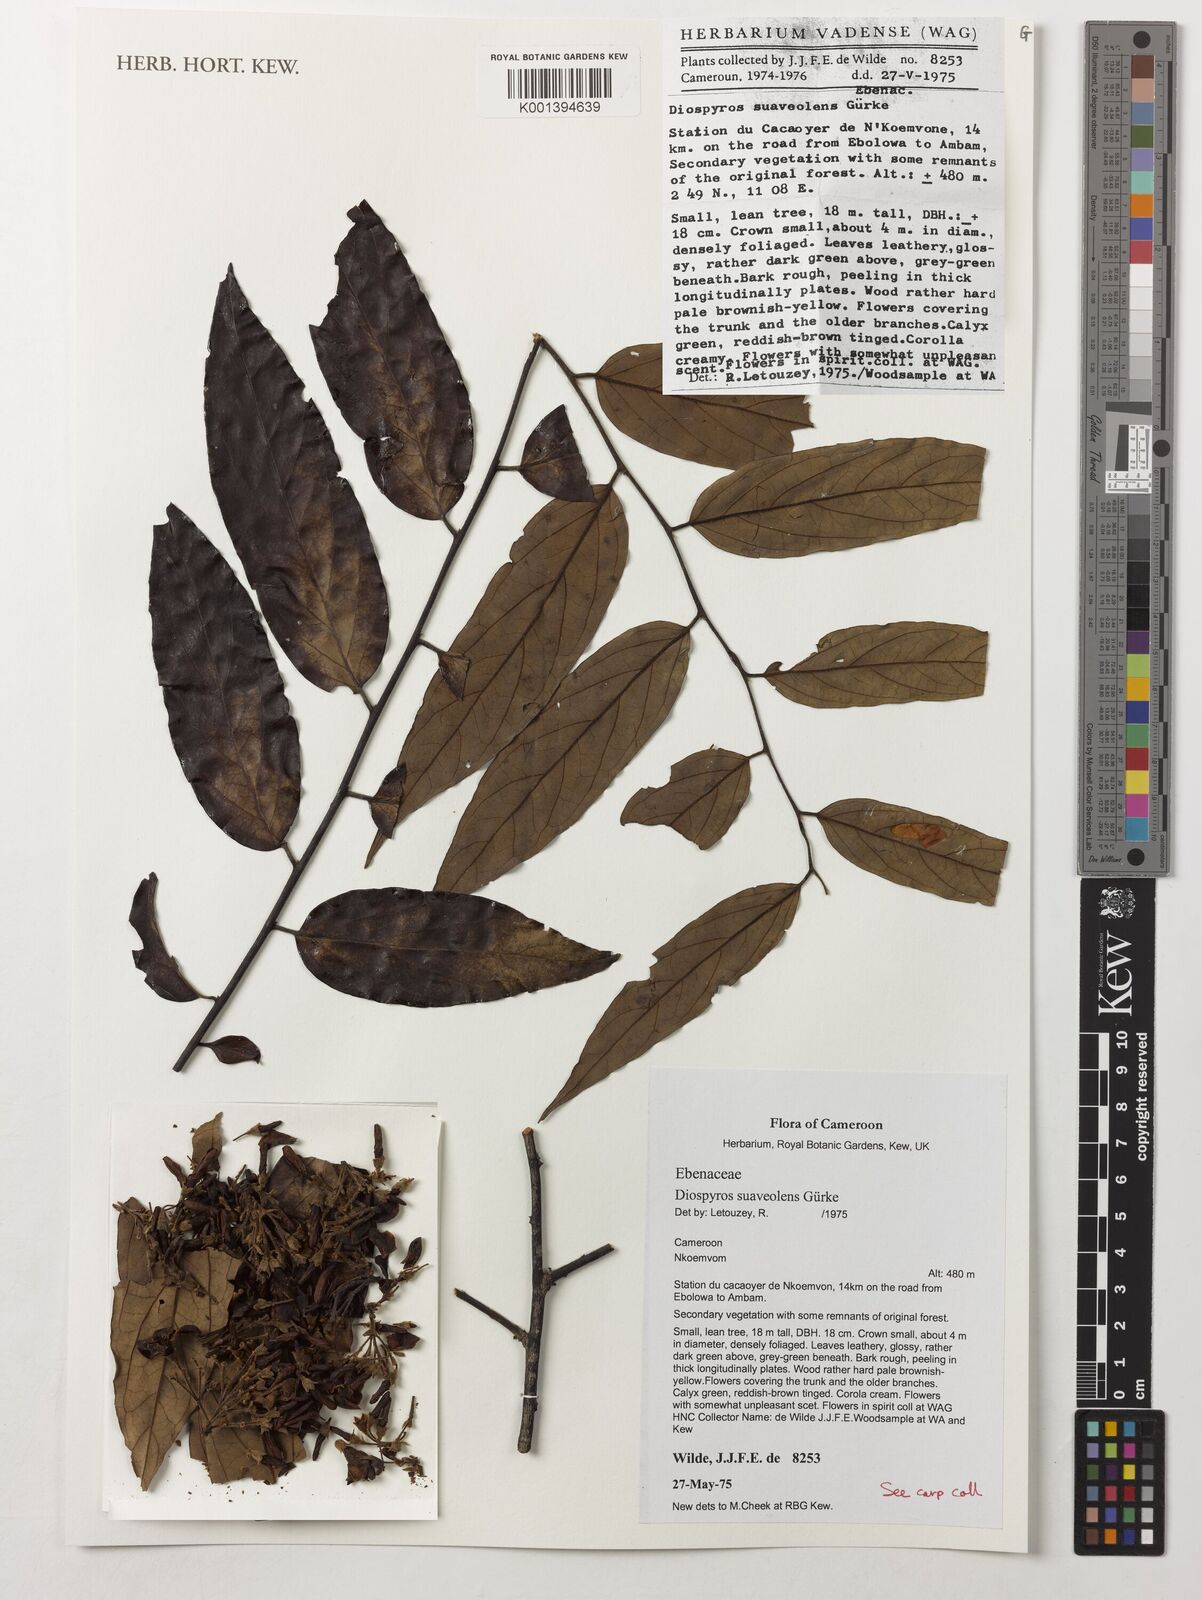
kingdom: Plantae
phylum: Tracheophyta
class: Magnoliopsida
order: Ericales
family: Ebenaceae
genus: Diospyros
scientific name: Diospyros suaveolens
